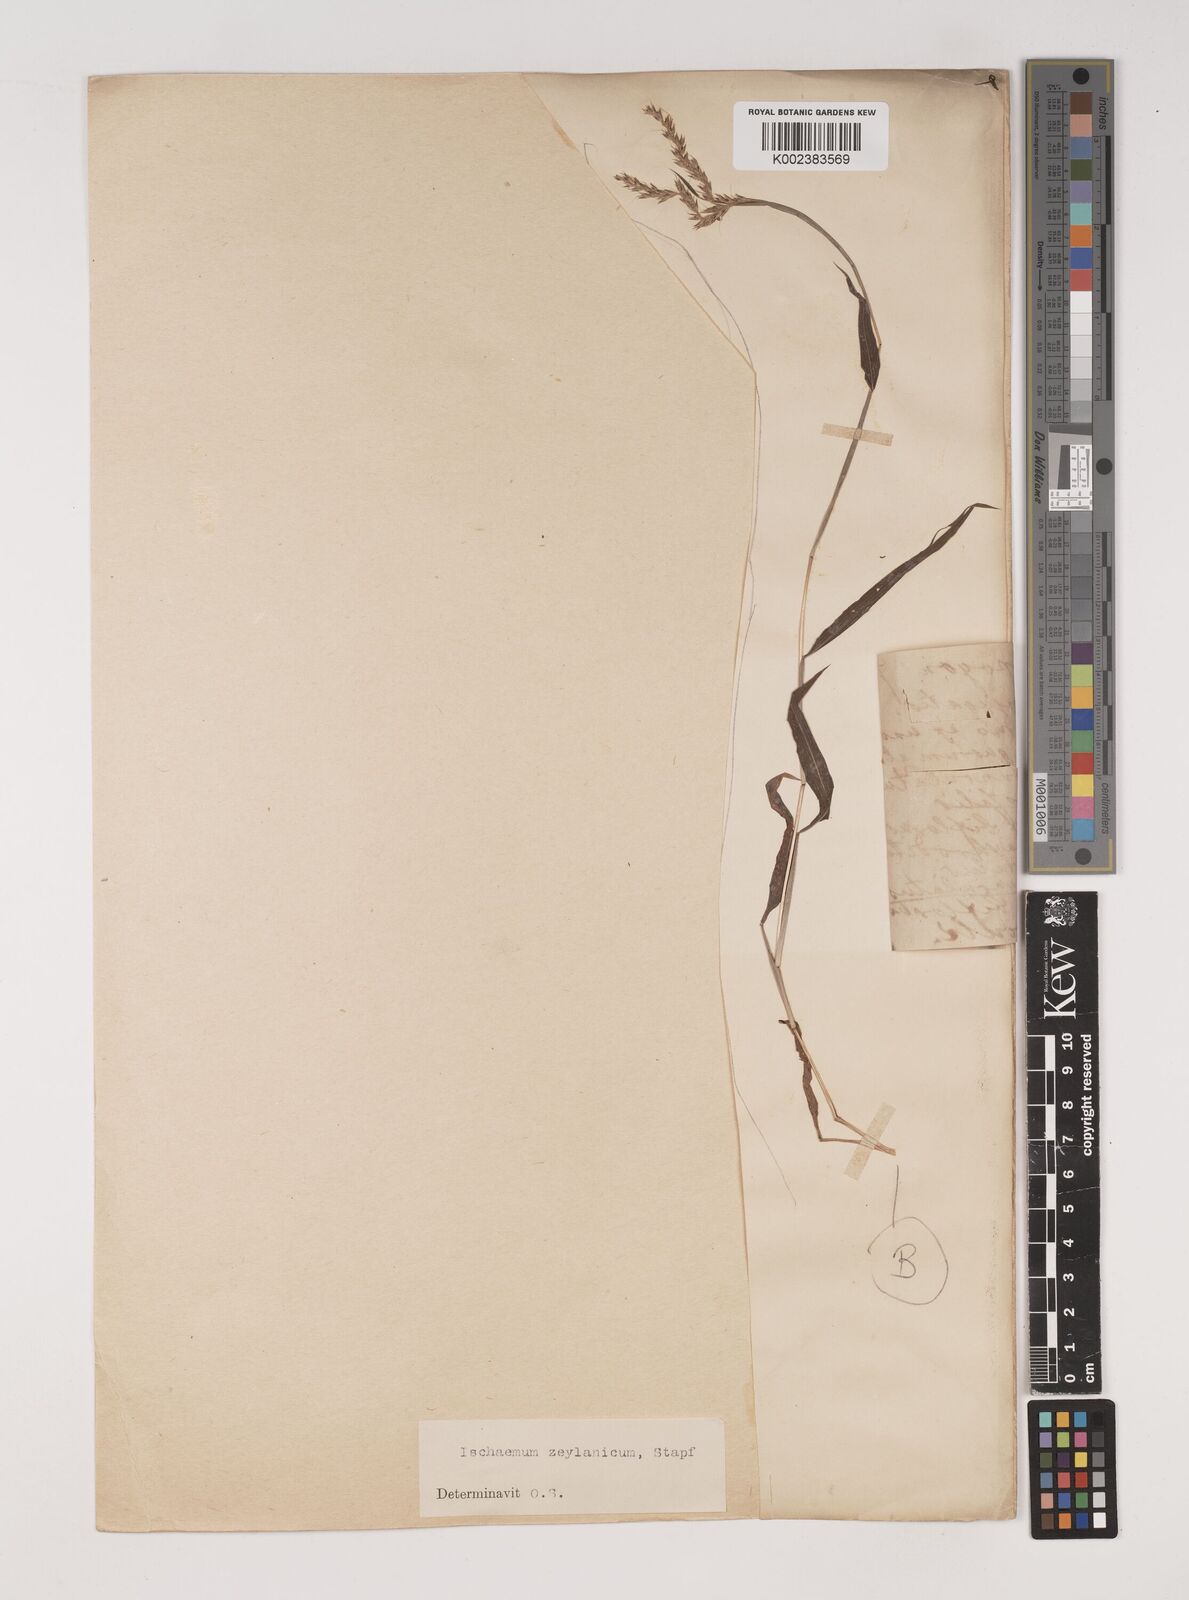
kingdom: Plantae
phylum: Tracheophyta
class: Liliopsida
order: Poales
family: Poaceae
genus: Ischaemum
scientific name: Ischaemum zeylanicola
